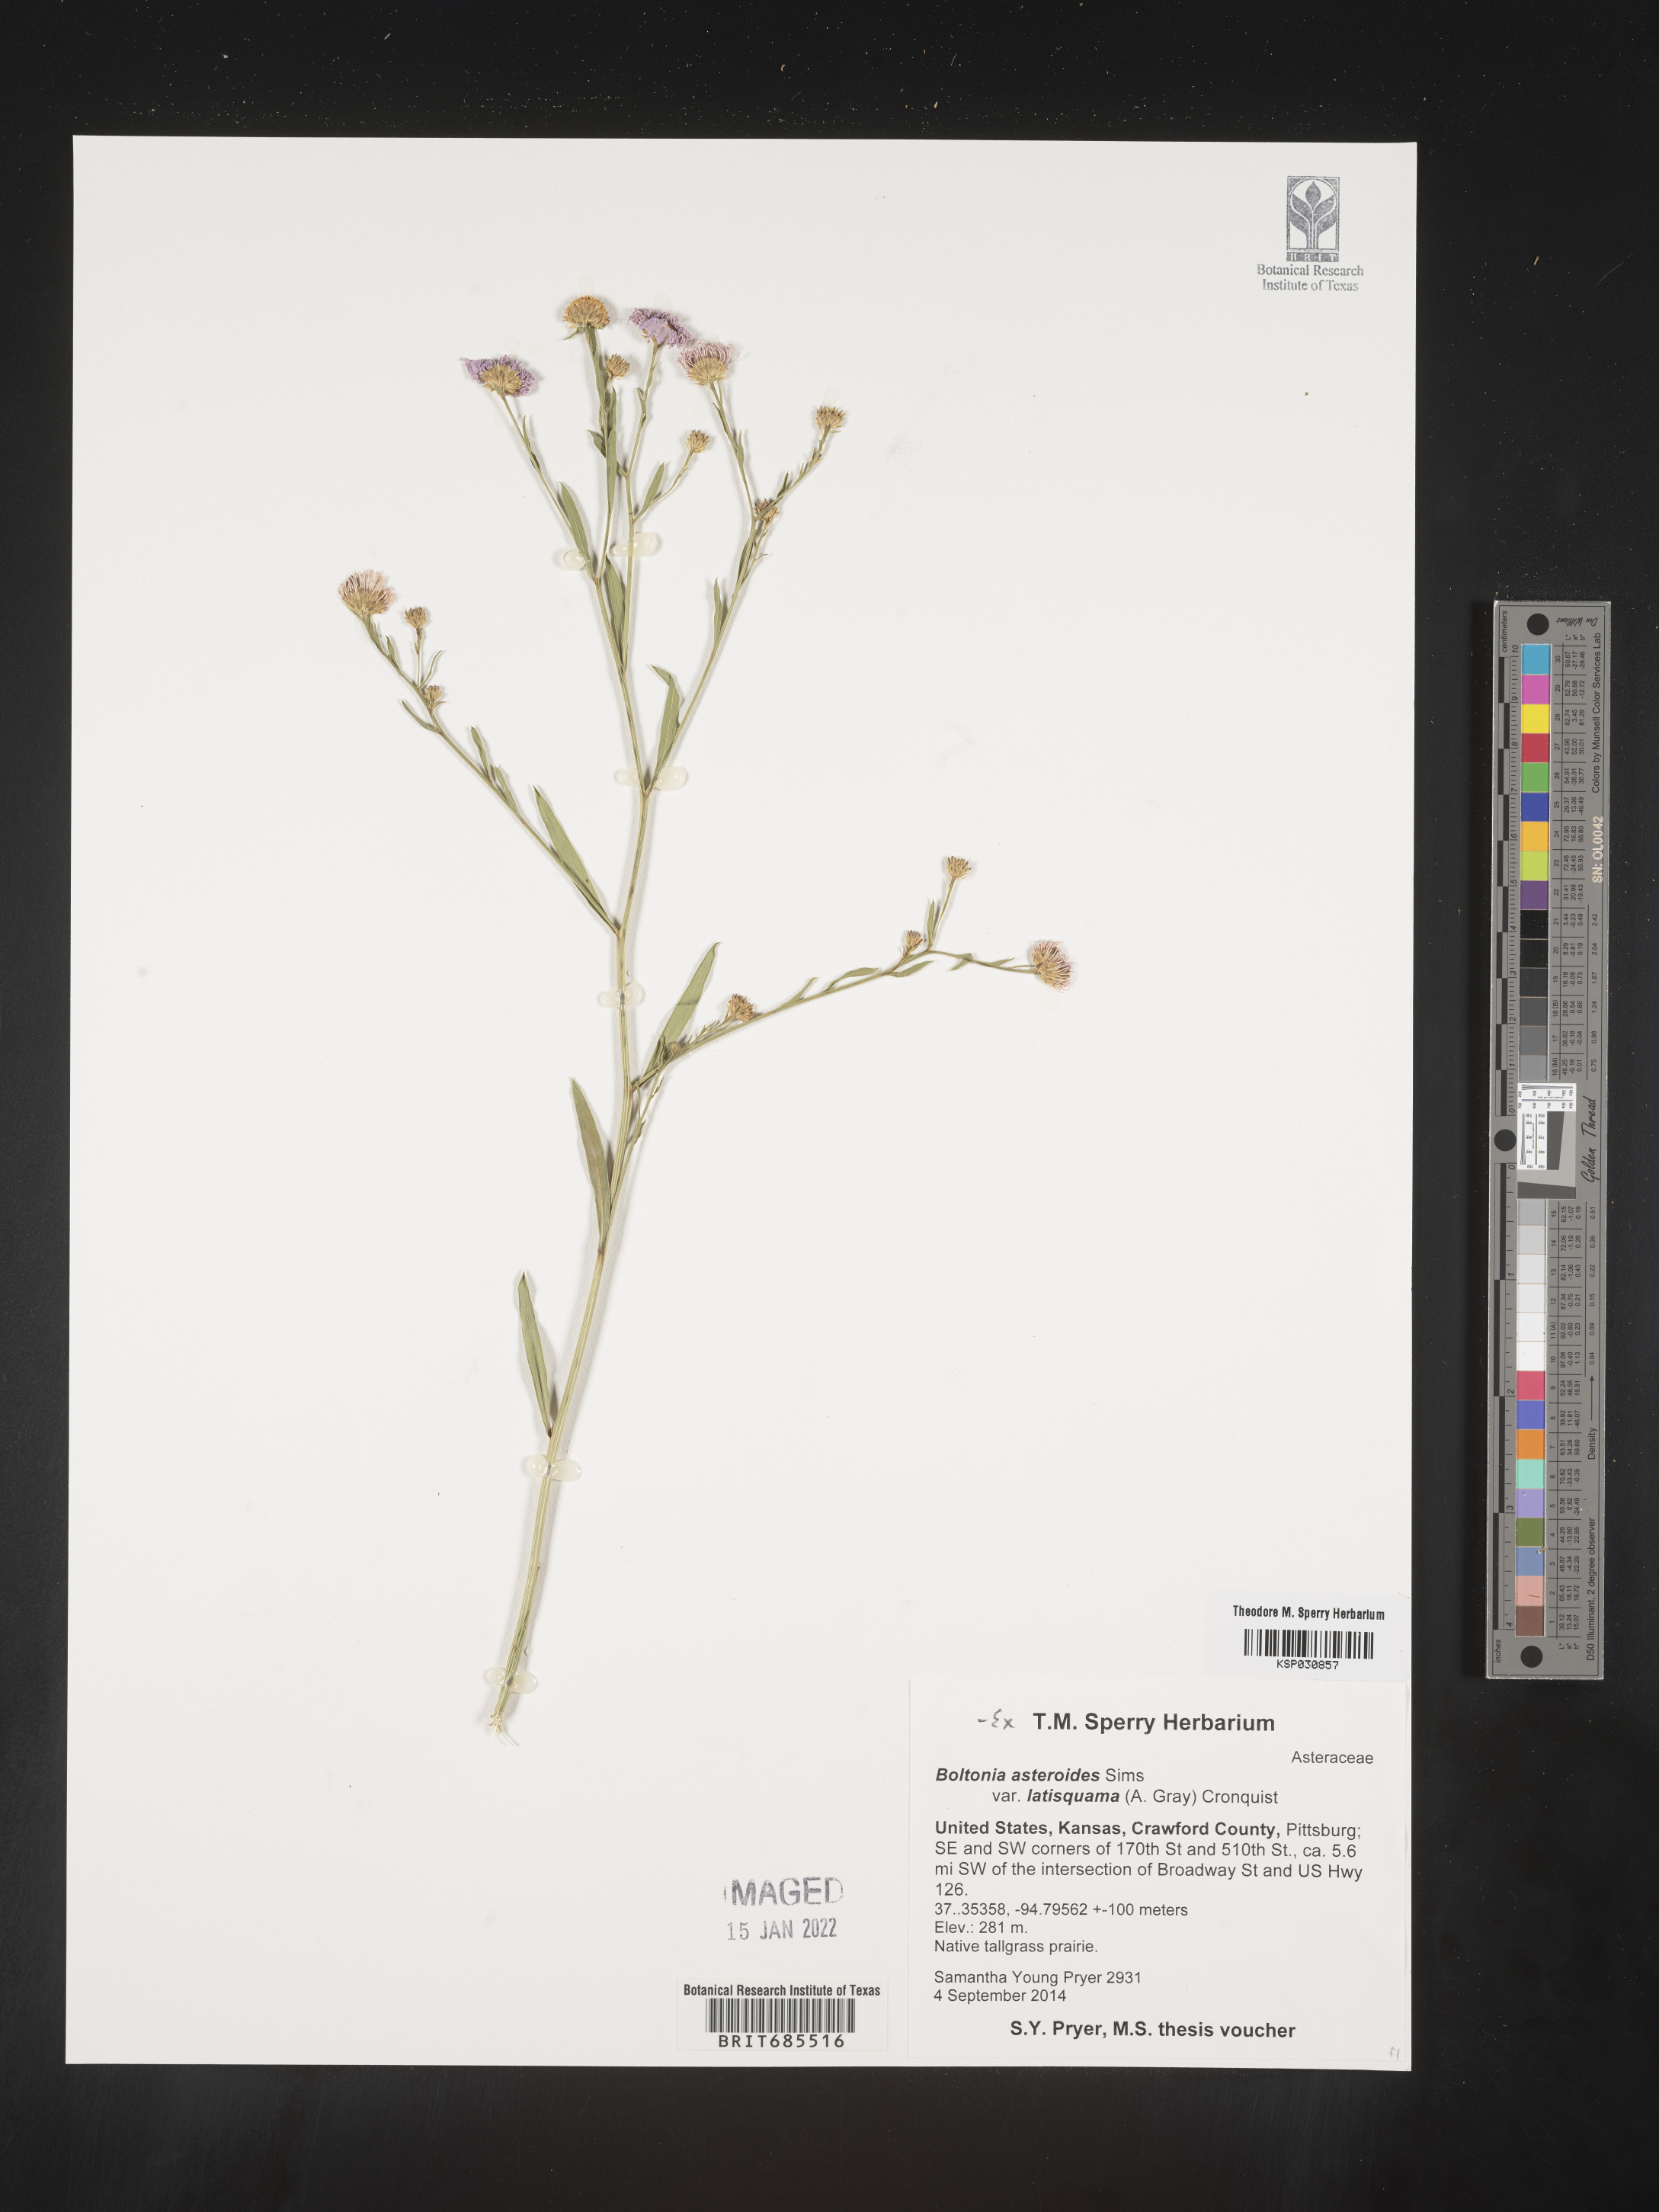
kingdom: Plantae
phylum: Tracheophyta
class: Magnoliopsida
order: Asterales
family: Asteraceae
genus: Boltonia
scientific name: Boltonia asteroides
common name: False chamomile
